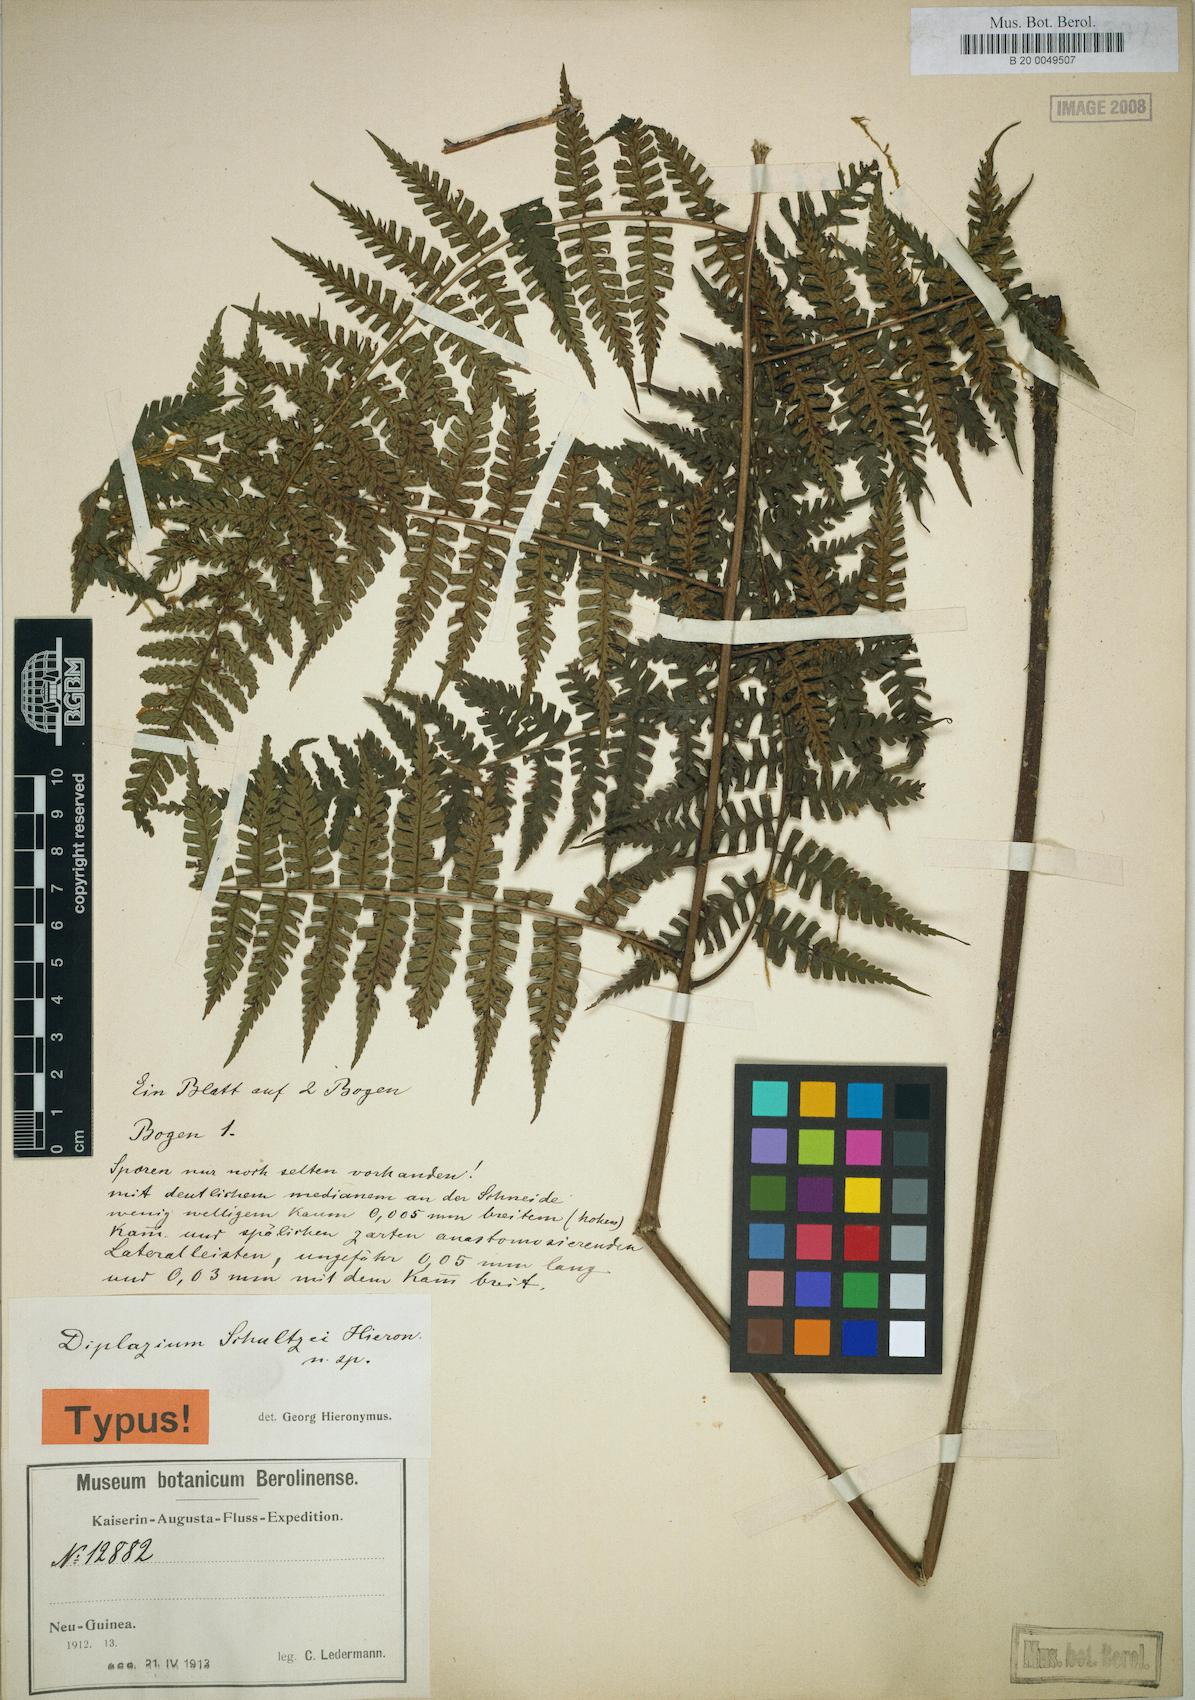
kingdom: Plantae
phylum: Tracheophyta
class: Polypodiopsida
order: Polypodiales
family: Athyriaceae
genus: Diplazium
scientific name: Diplazium schultzei
